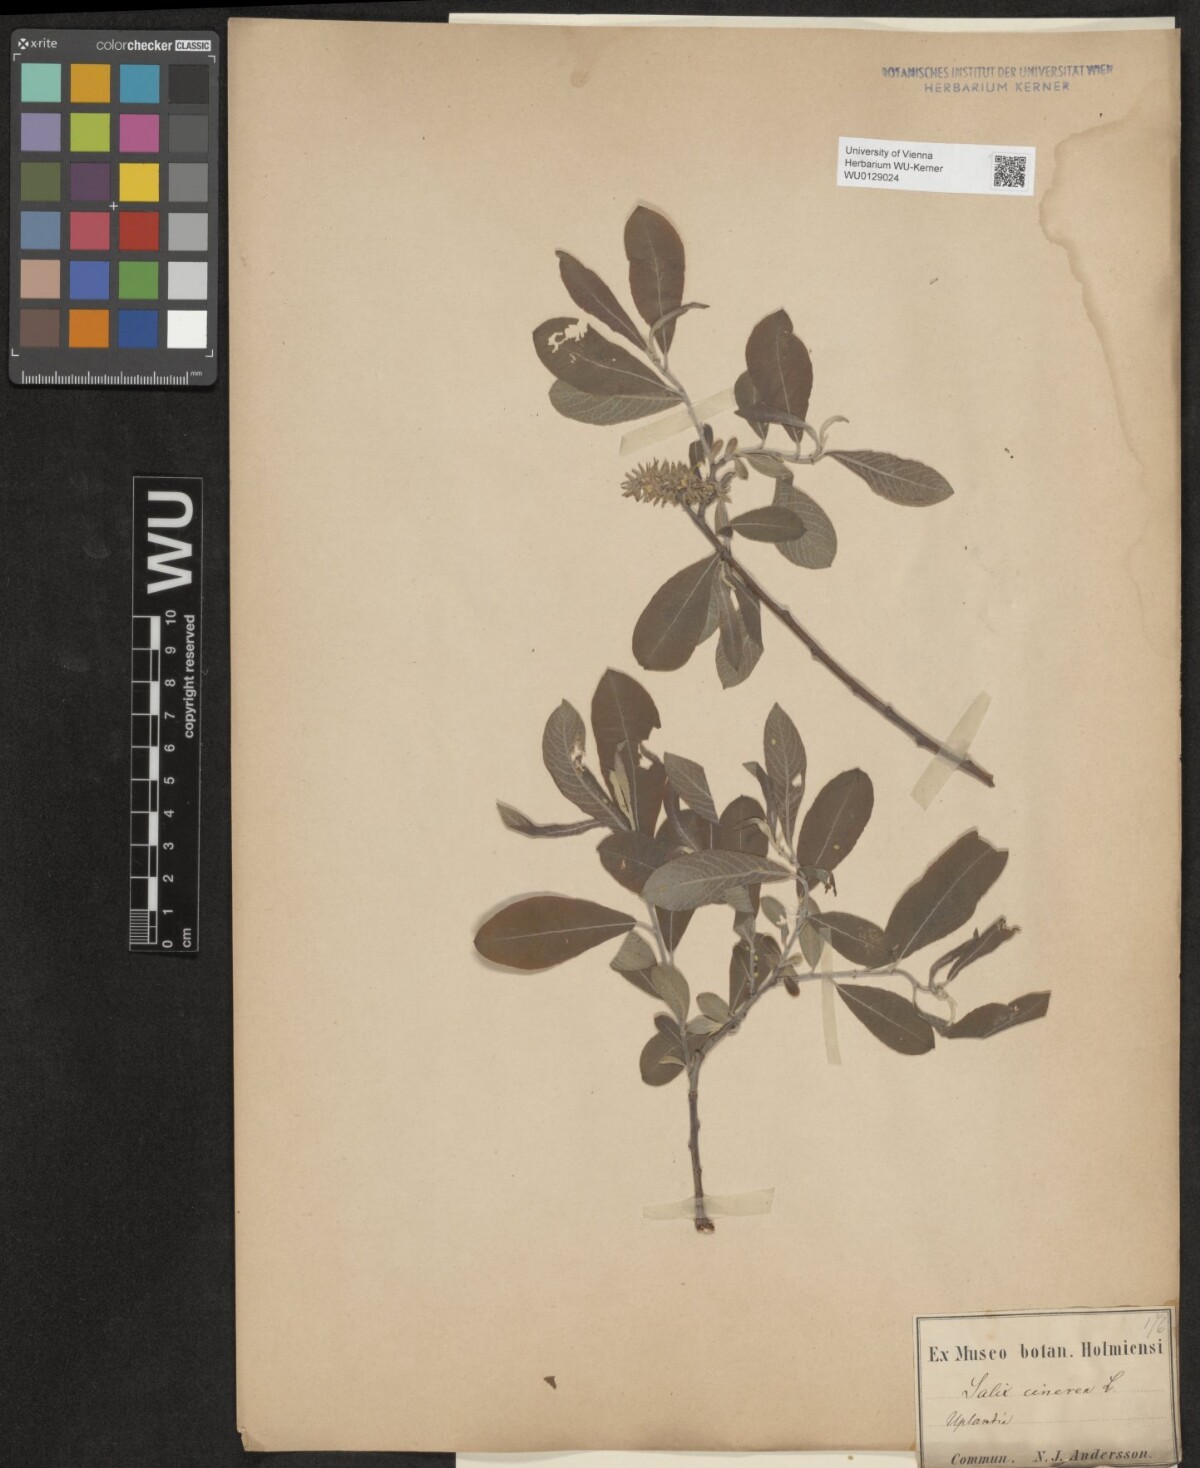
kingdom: Plantae
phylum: Tracheophyta
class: Magnoliopsida
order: Malpighiales
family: Salicaceae
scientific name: Salicaceae
